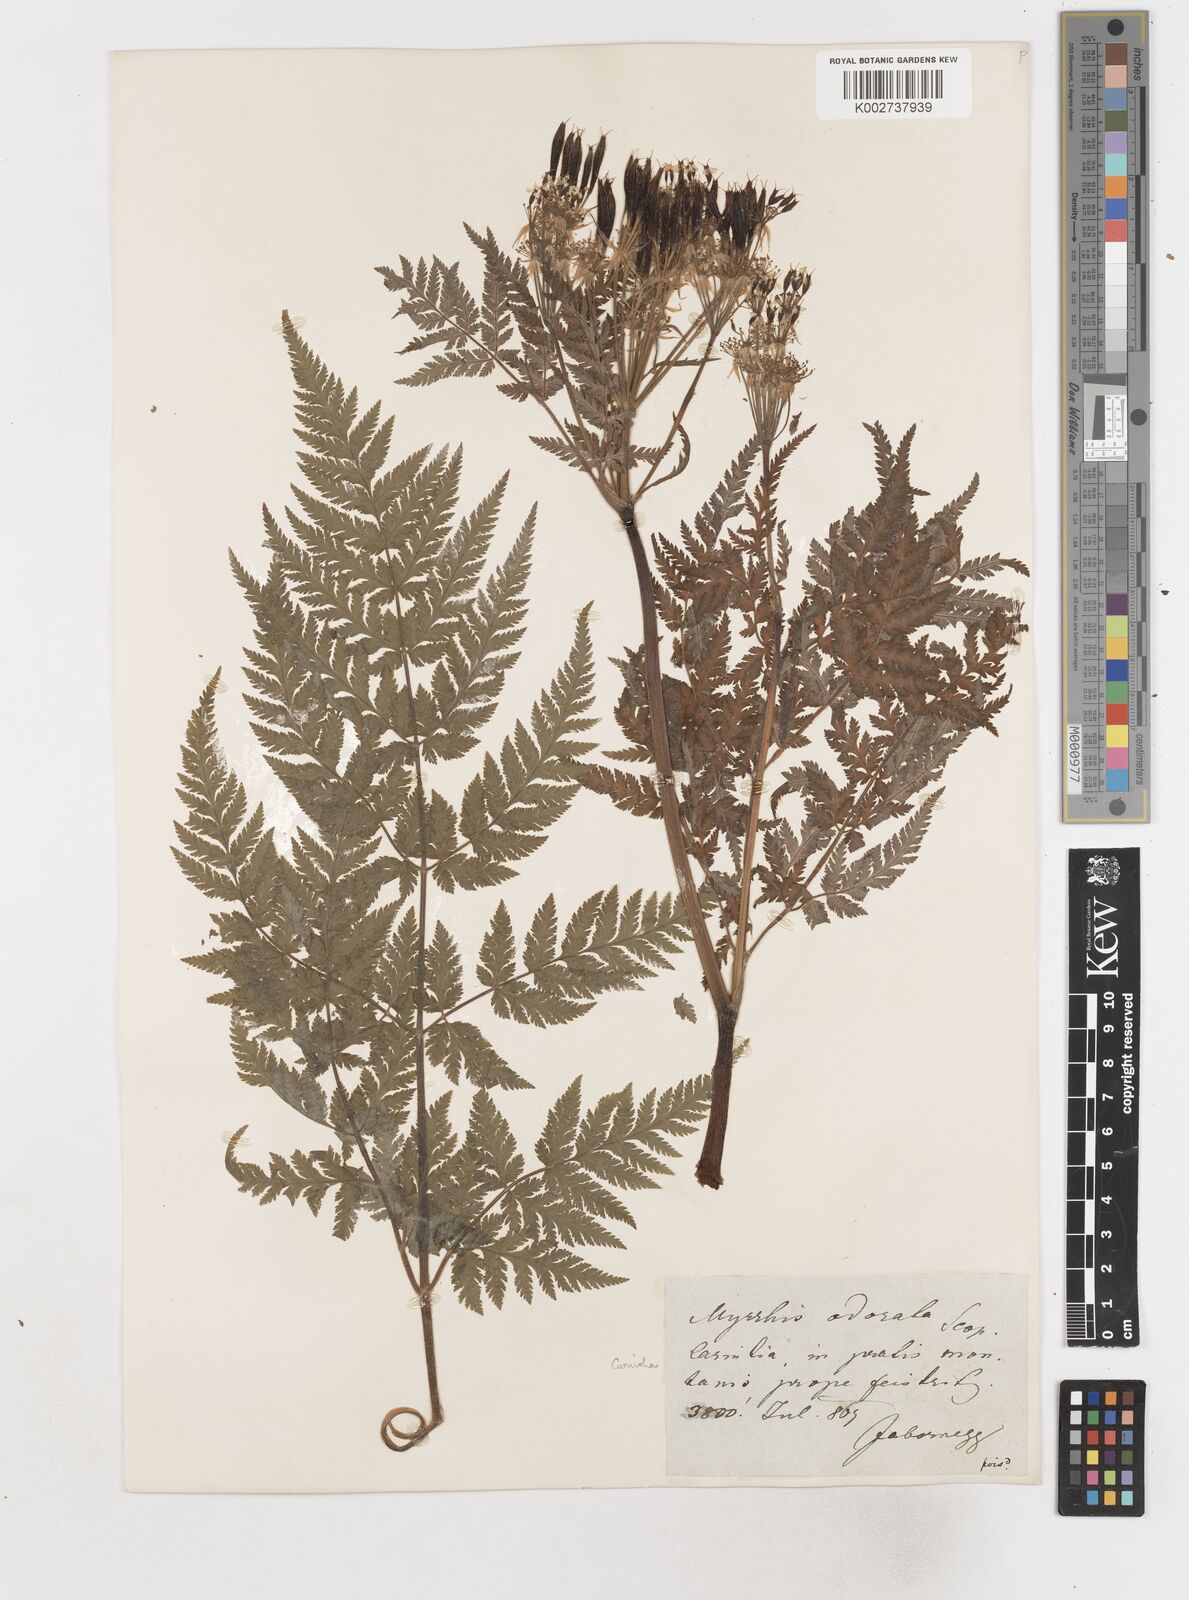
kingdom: Plantae
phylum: Tracheophyta
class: Magnoliopsida
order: Apiales
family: Apiaceae
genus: Myrrhis
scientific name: Myrrhis odorata
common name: Sweet cicely
